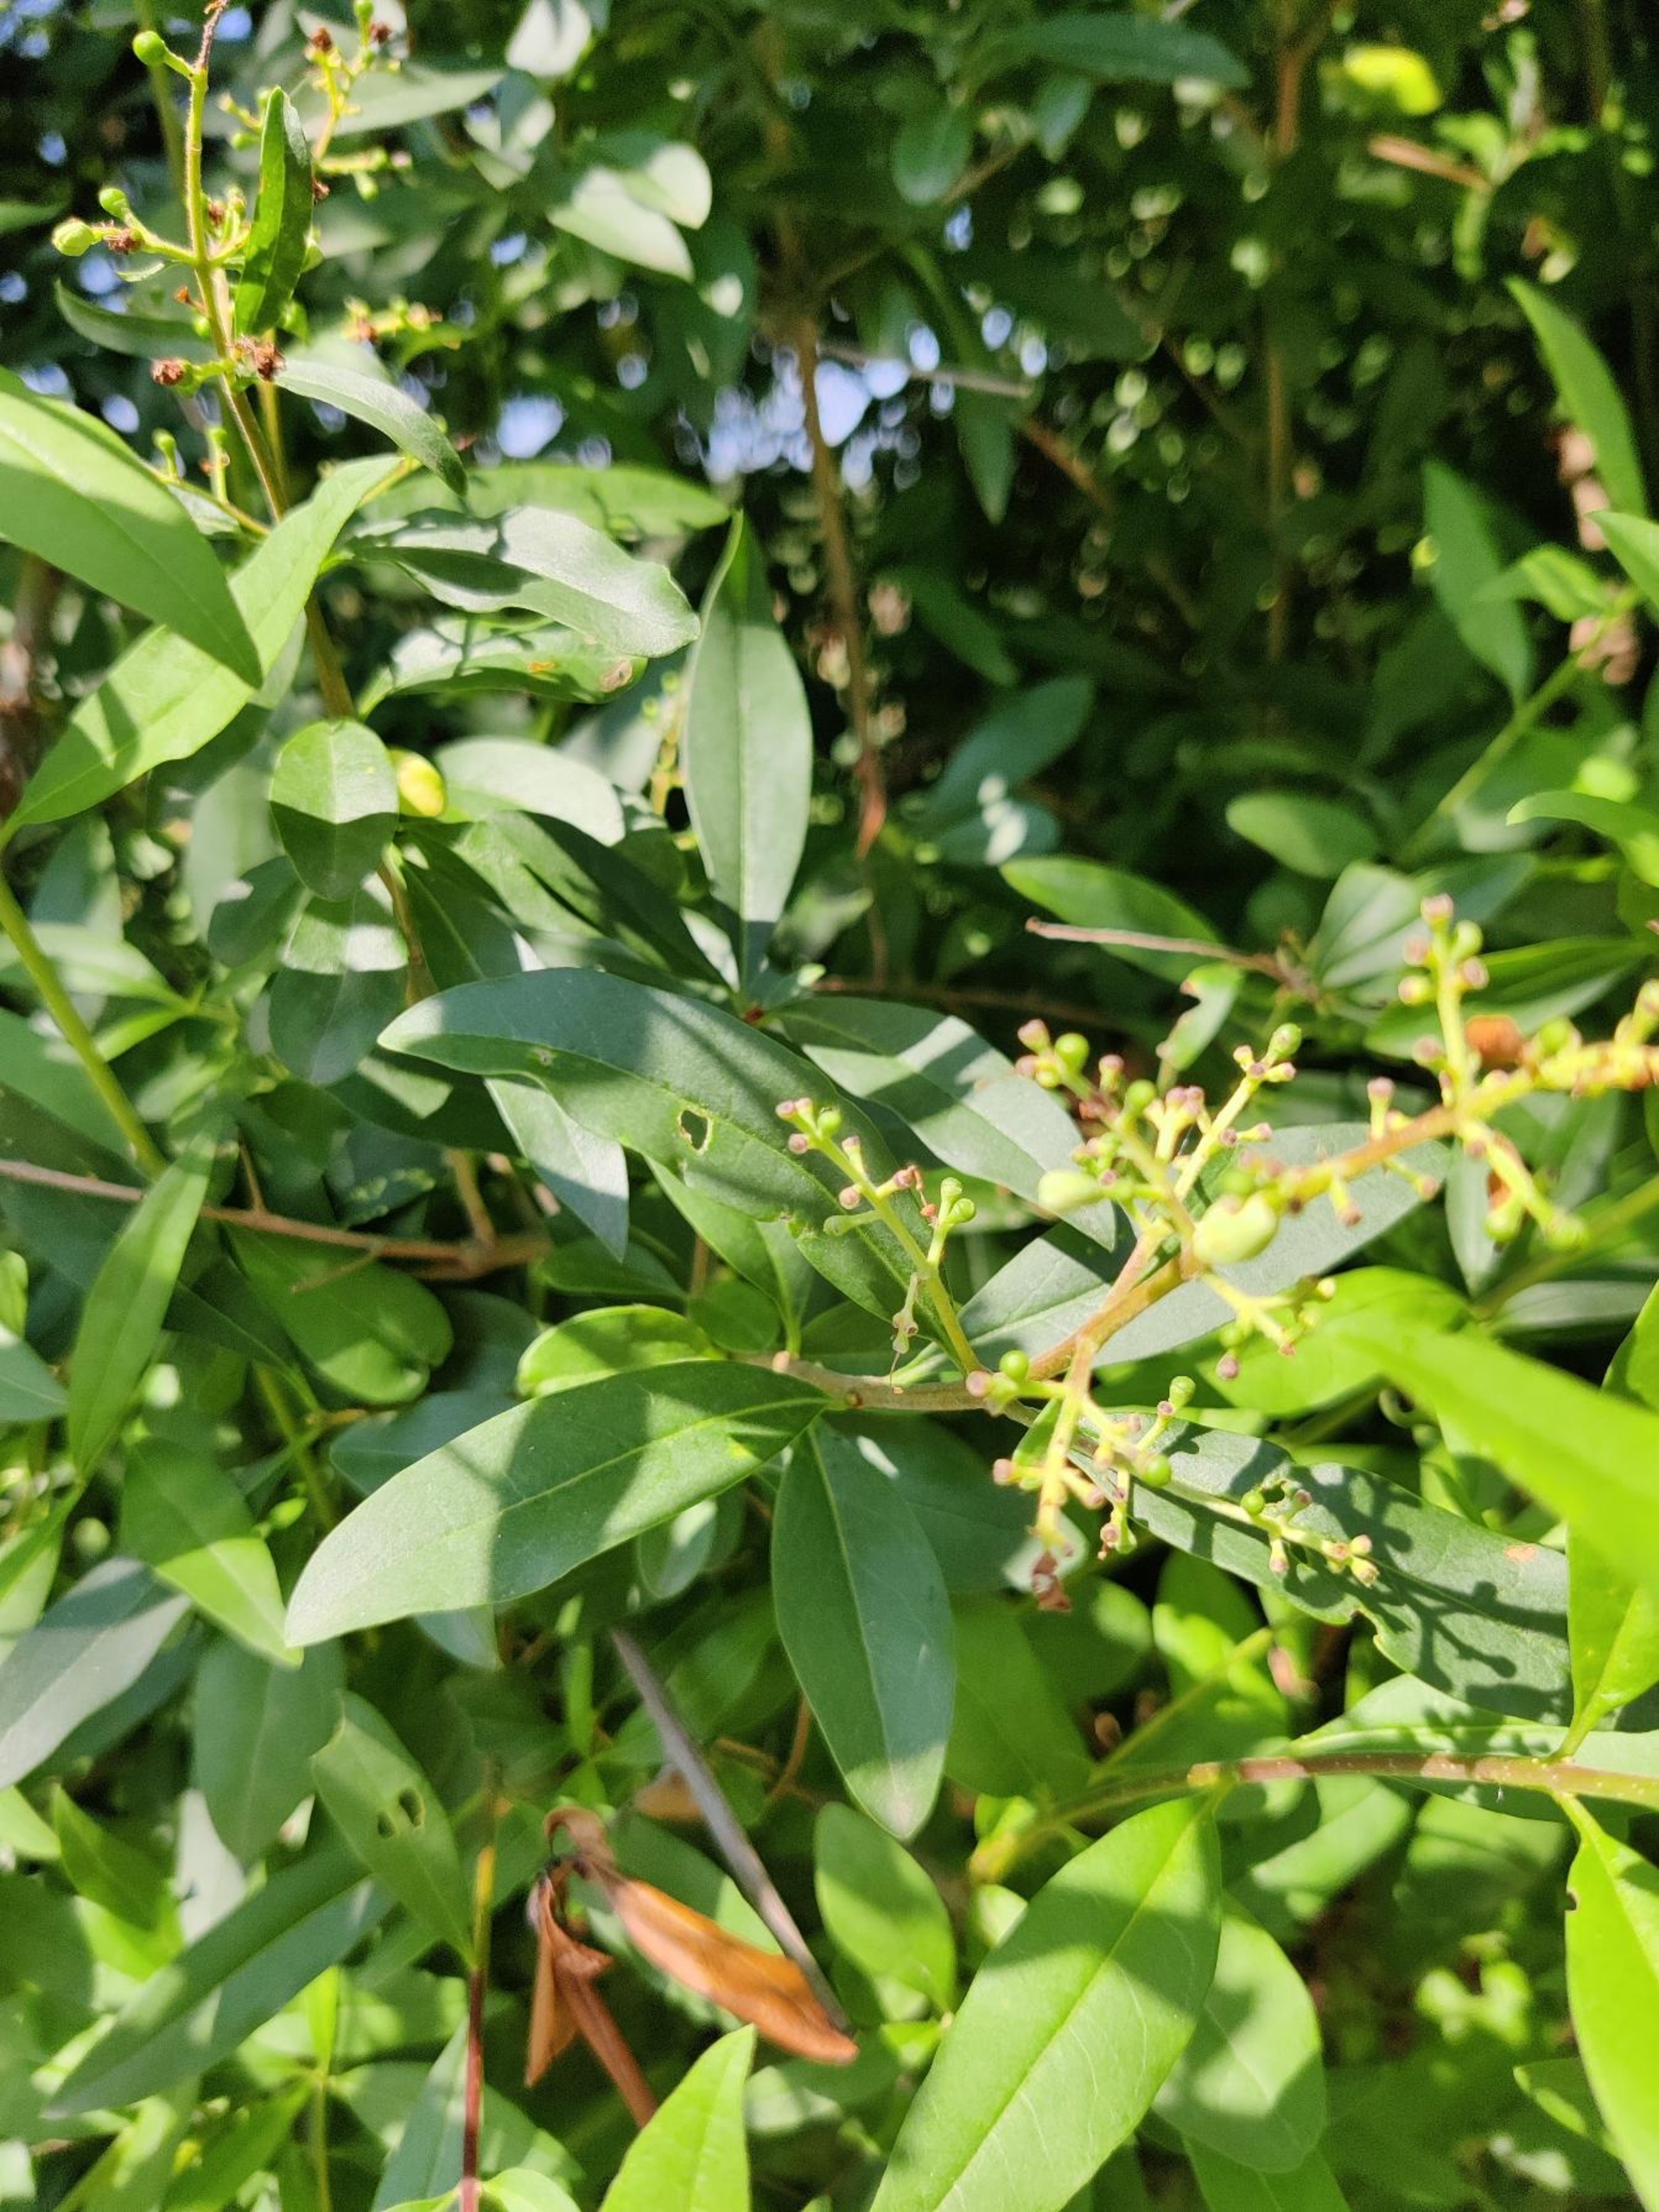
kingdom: Plantae
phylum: Tracheophyta
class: Magnoliopsida
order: Lamiales
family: Oleaceae
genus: Ligustrum
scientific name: Ligustrum vulgare
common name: Liguster
